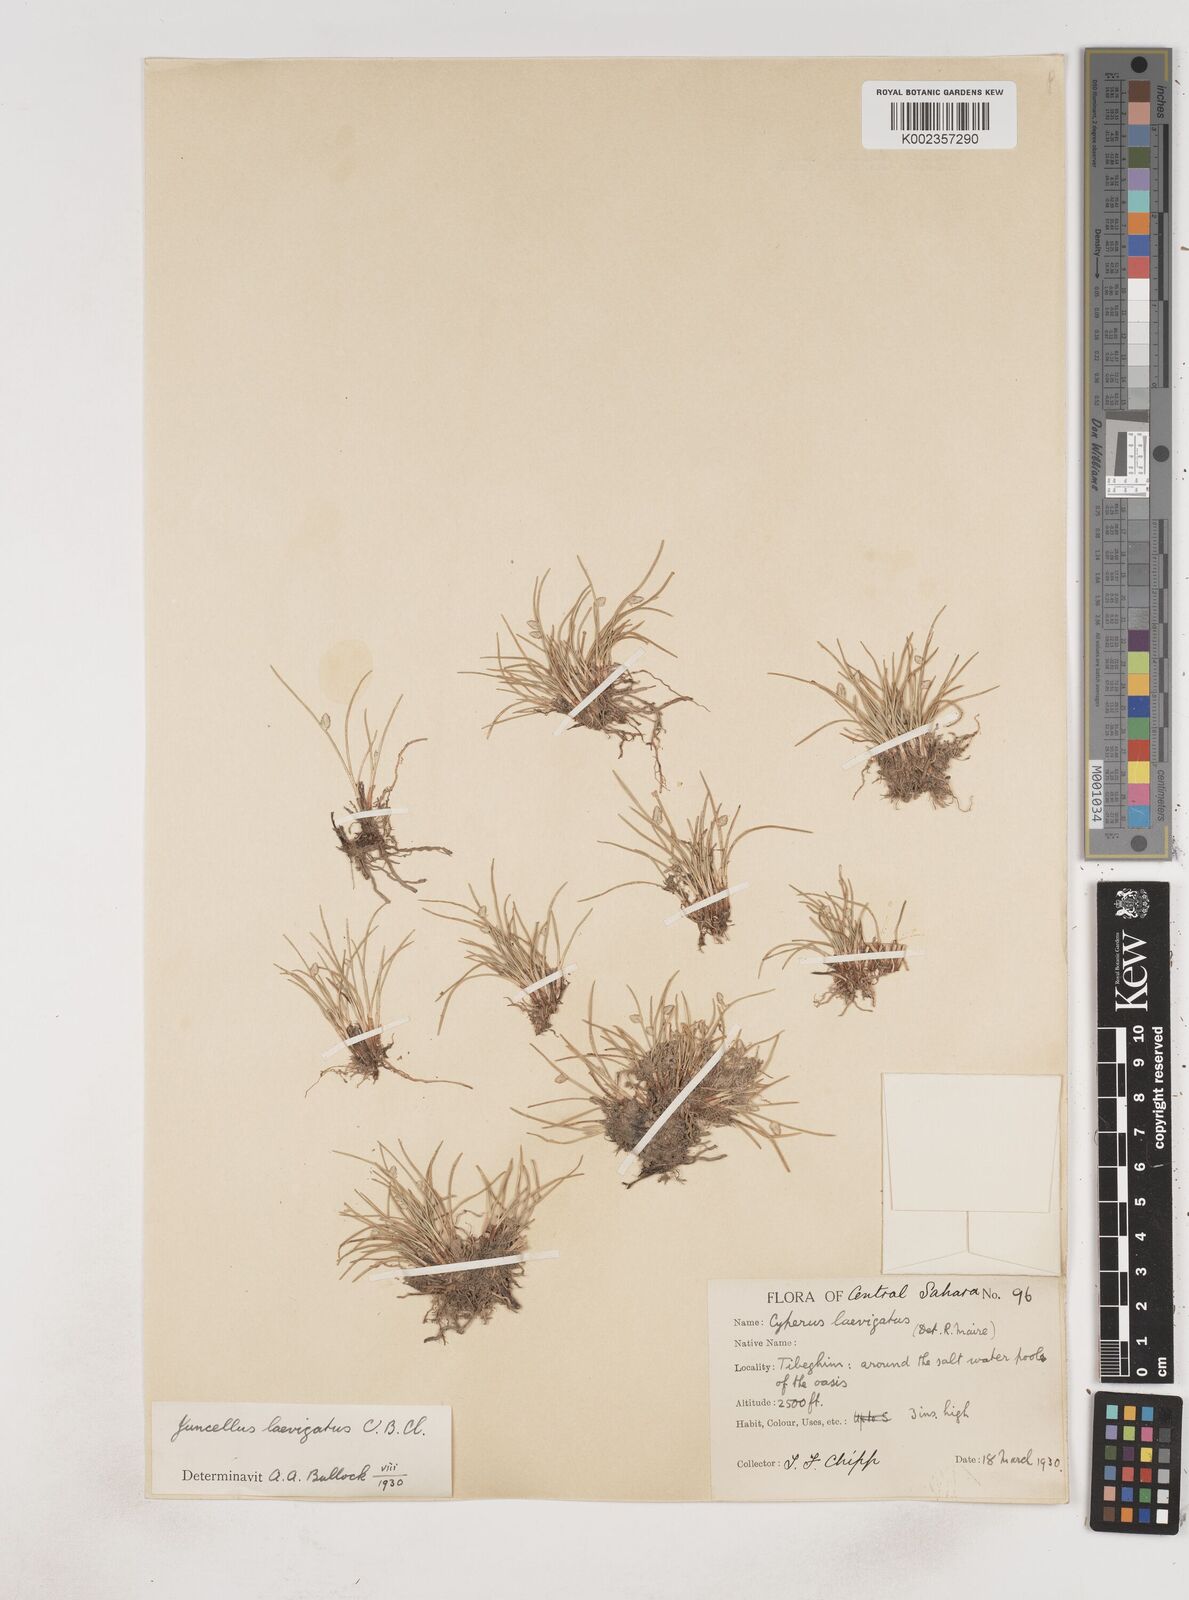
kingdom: Plantae
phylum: Tracheophyta
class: Liliopsida
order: Poales
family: Cyperaceae
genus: Cyperus
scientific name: Cyperus
